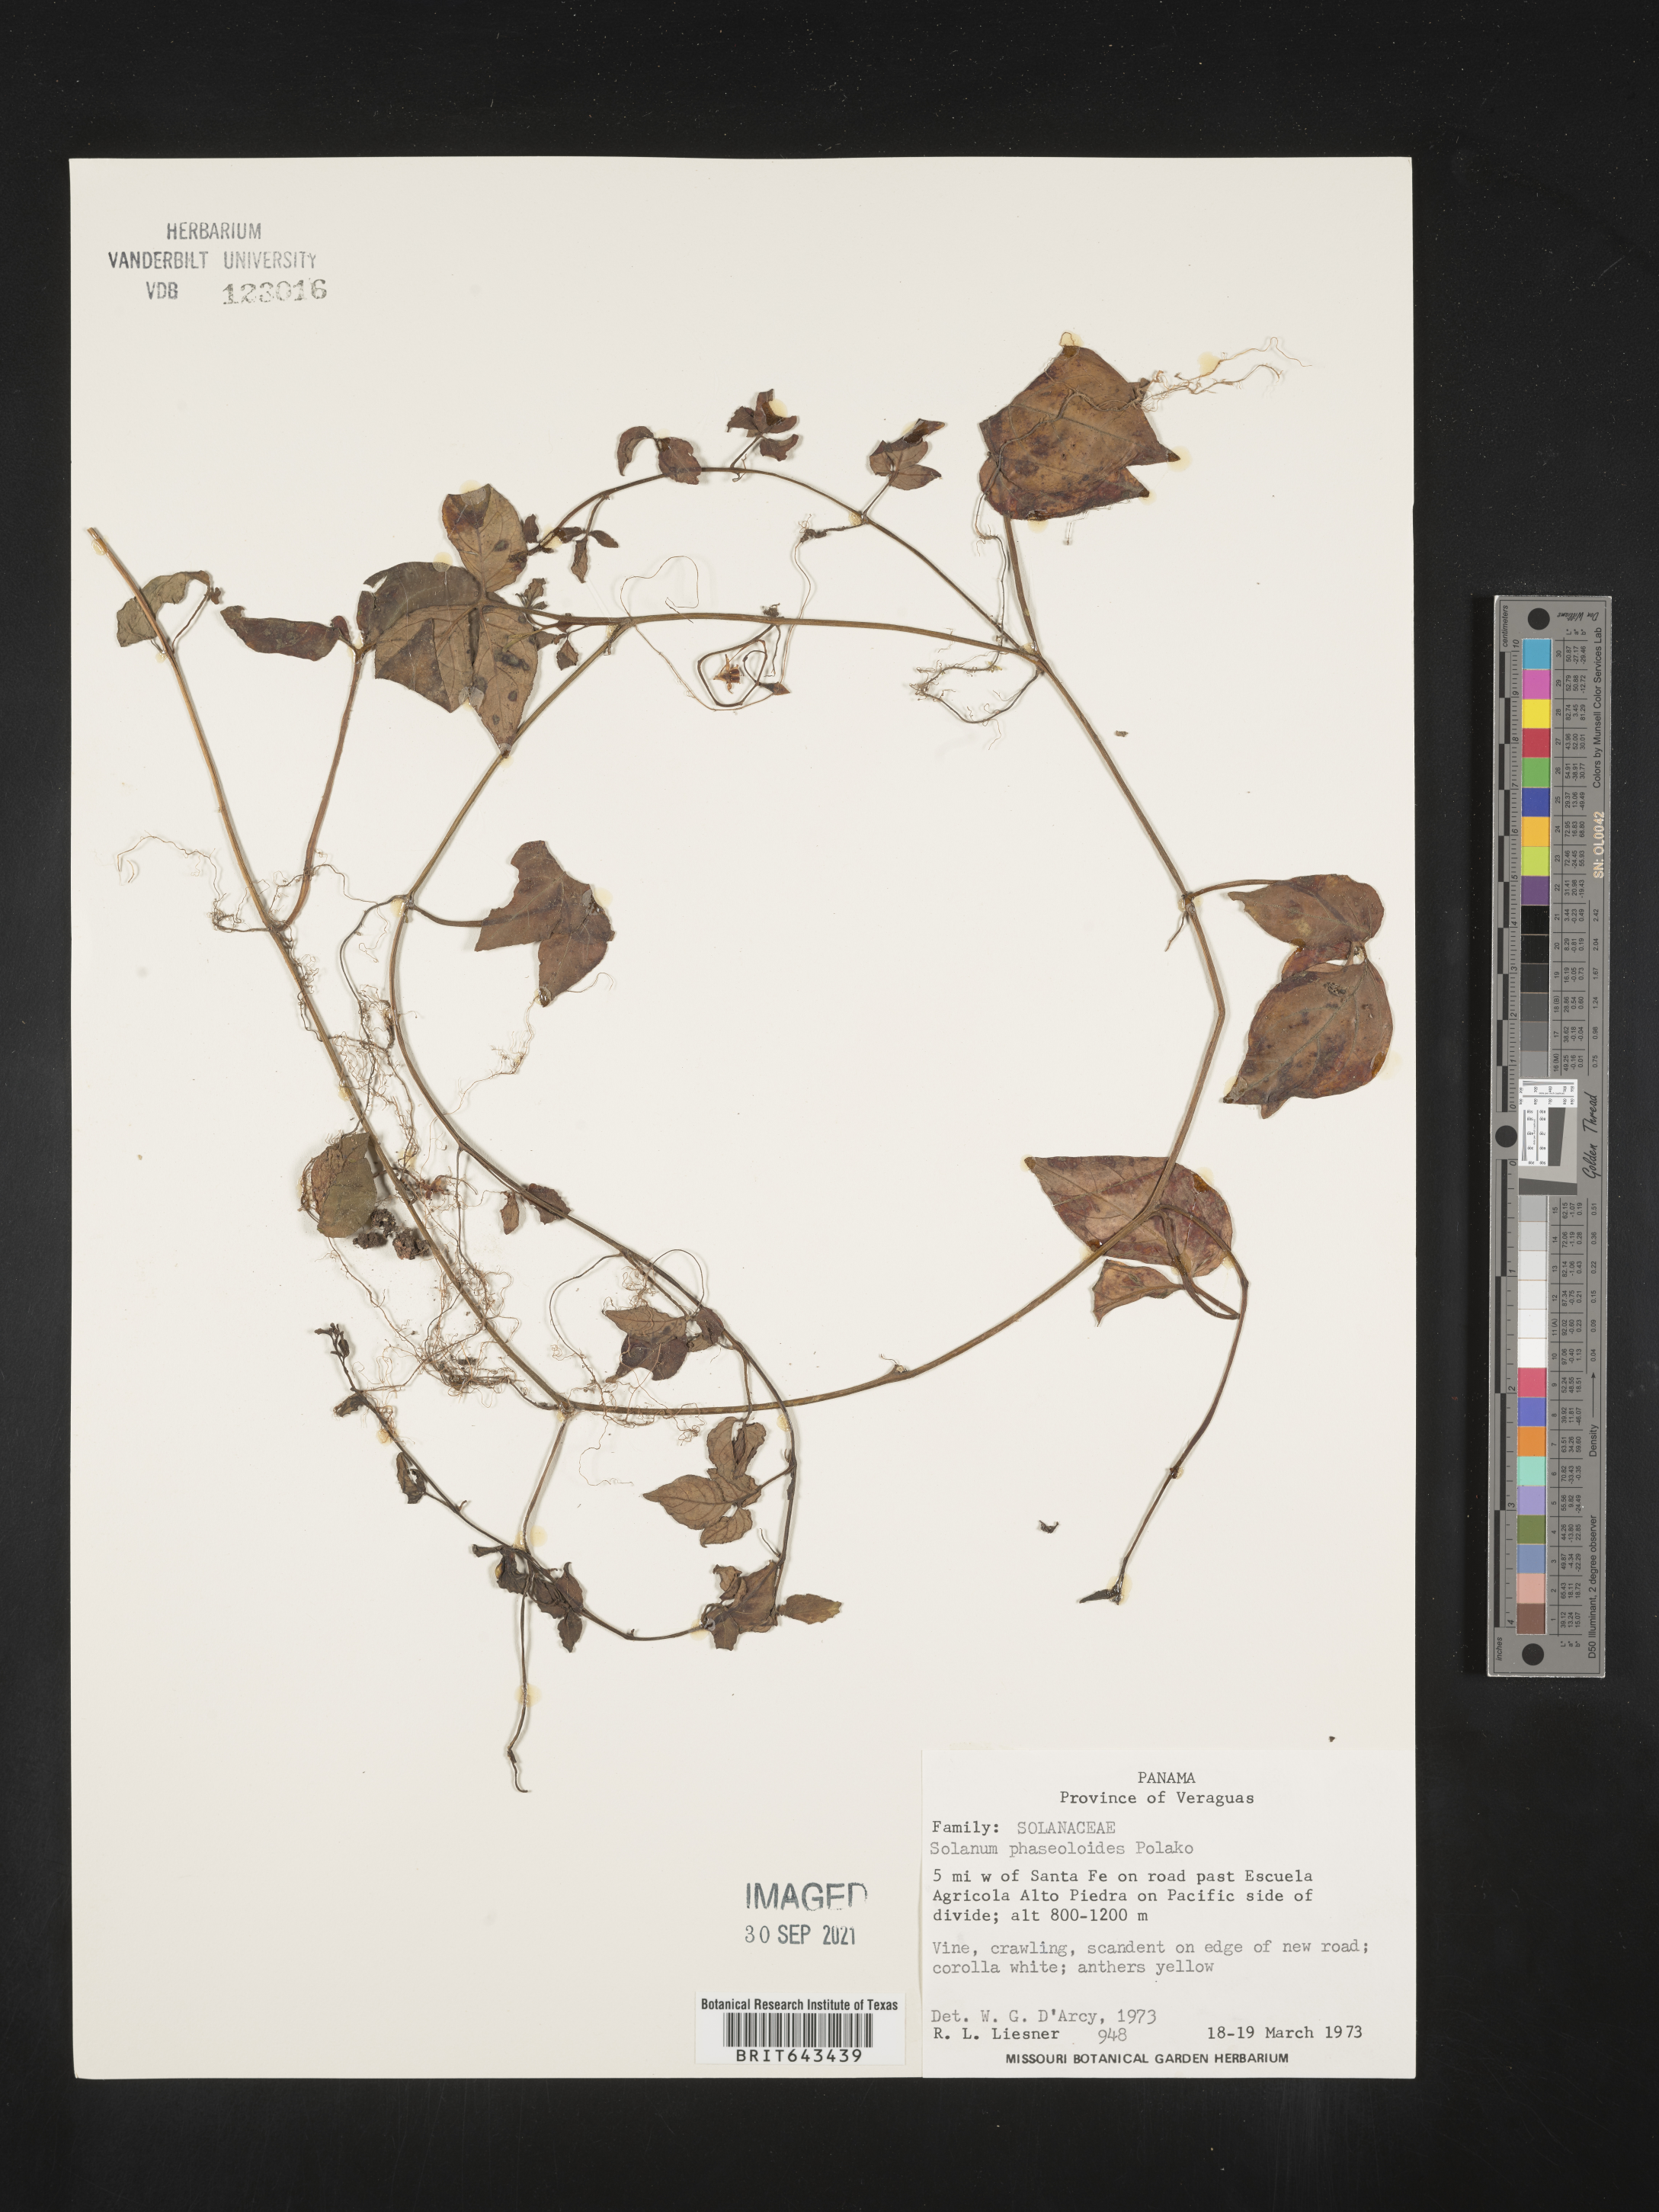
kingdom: Plantae
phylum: Tracheophyta
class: Magnoliopsida
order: Solanales
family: Solanaceae
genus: Solanum
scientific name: Solanum
